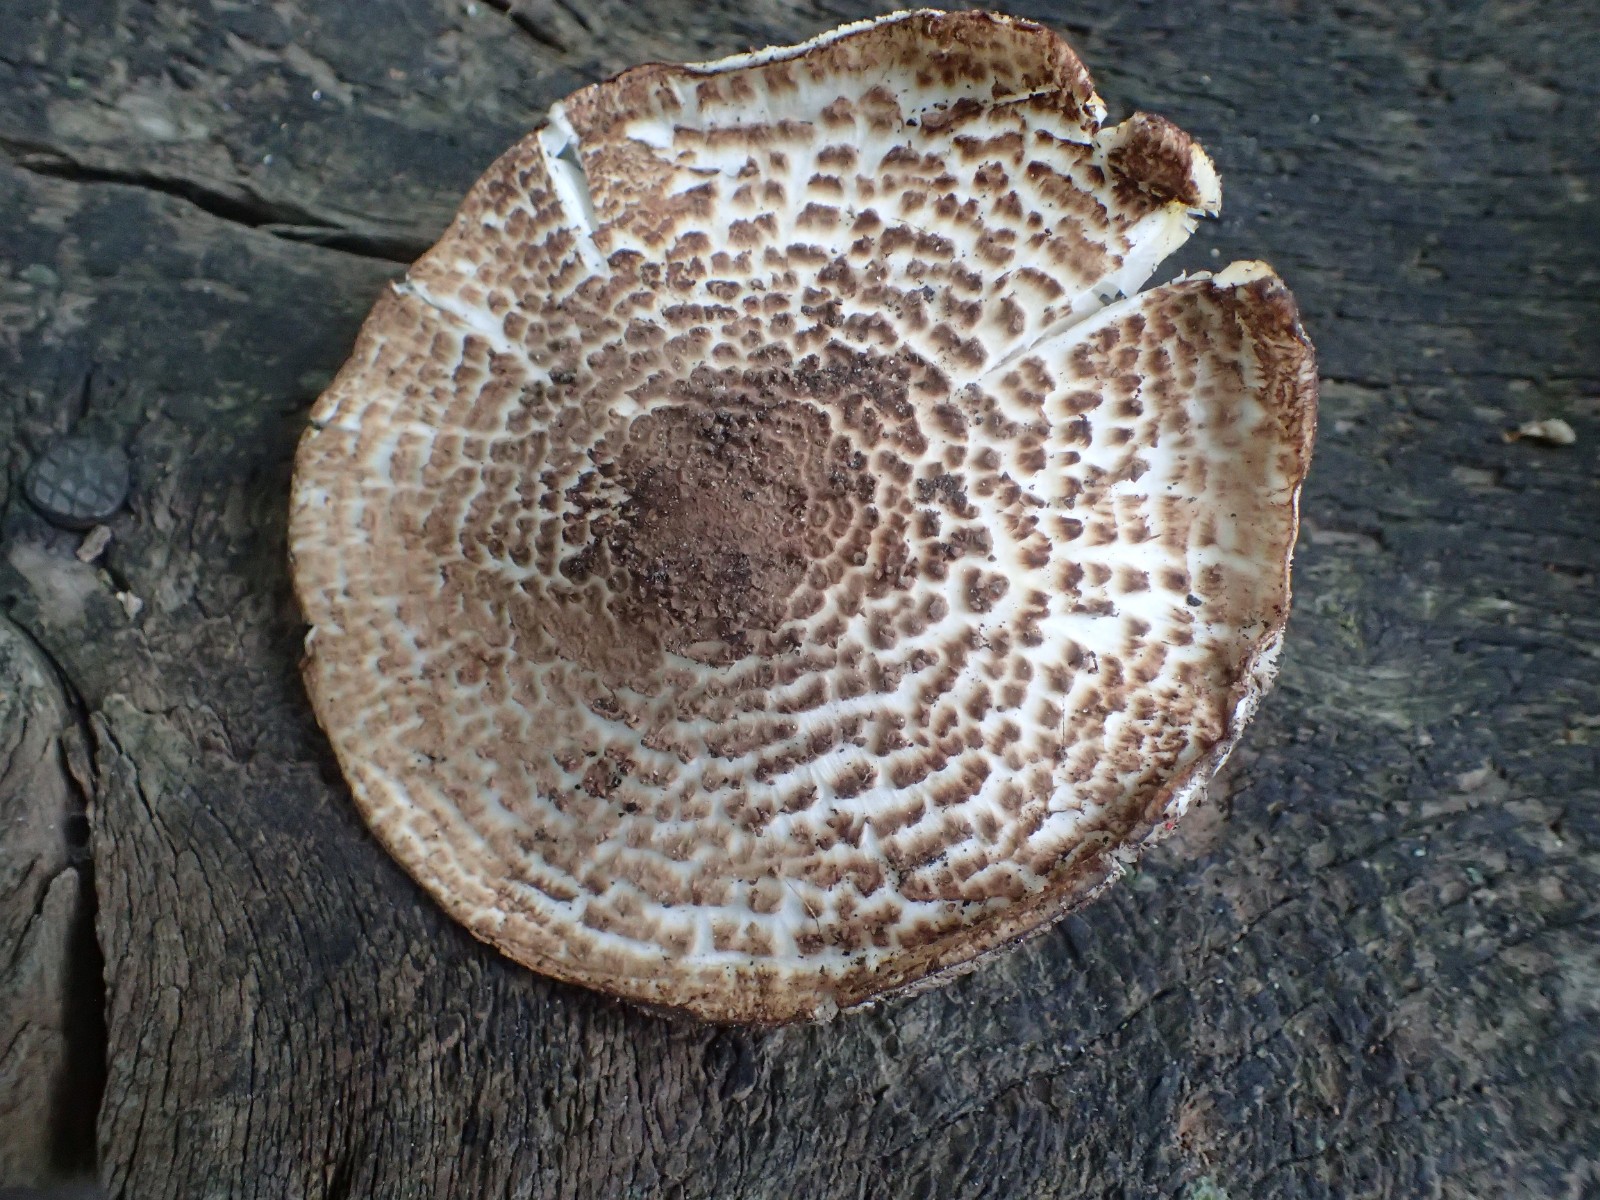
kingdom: Fungi
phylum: Basidiomycota
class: Agaricomycetes
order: Agaricales
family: Agaricaceae
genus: Echinoderma
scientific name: Echinoderma asperum
